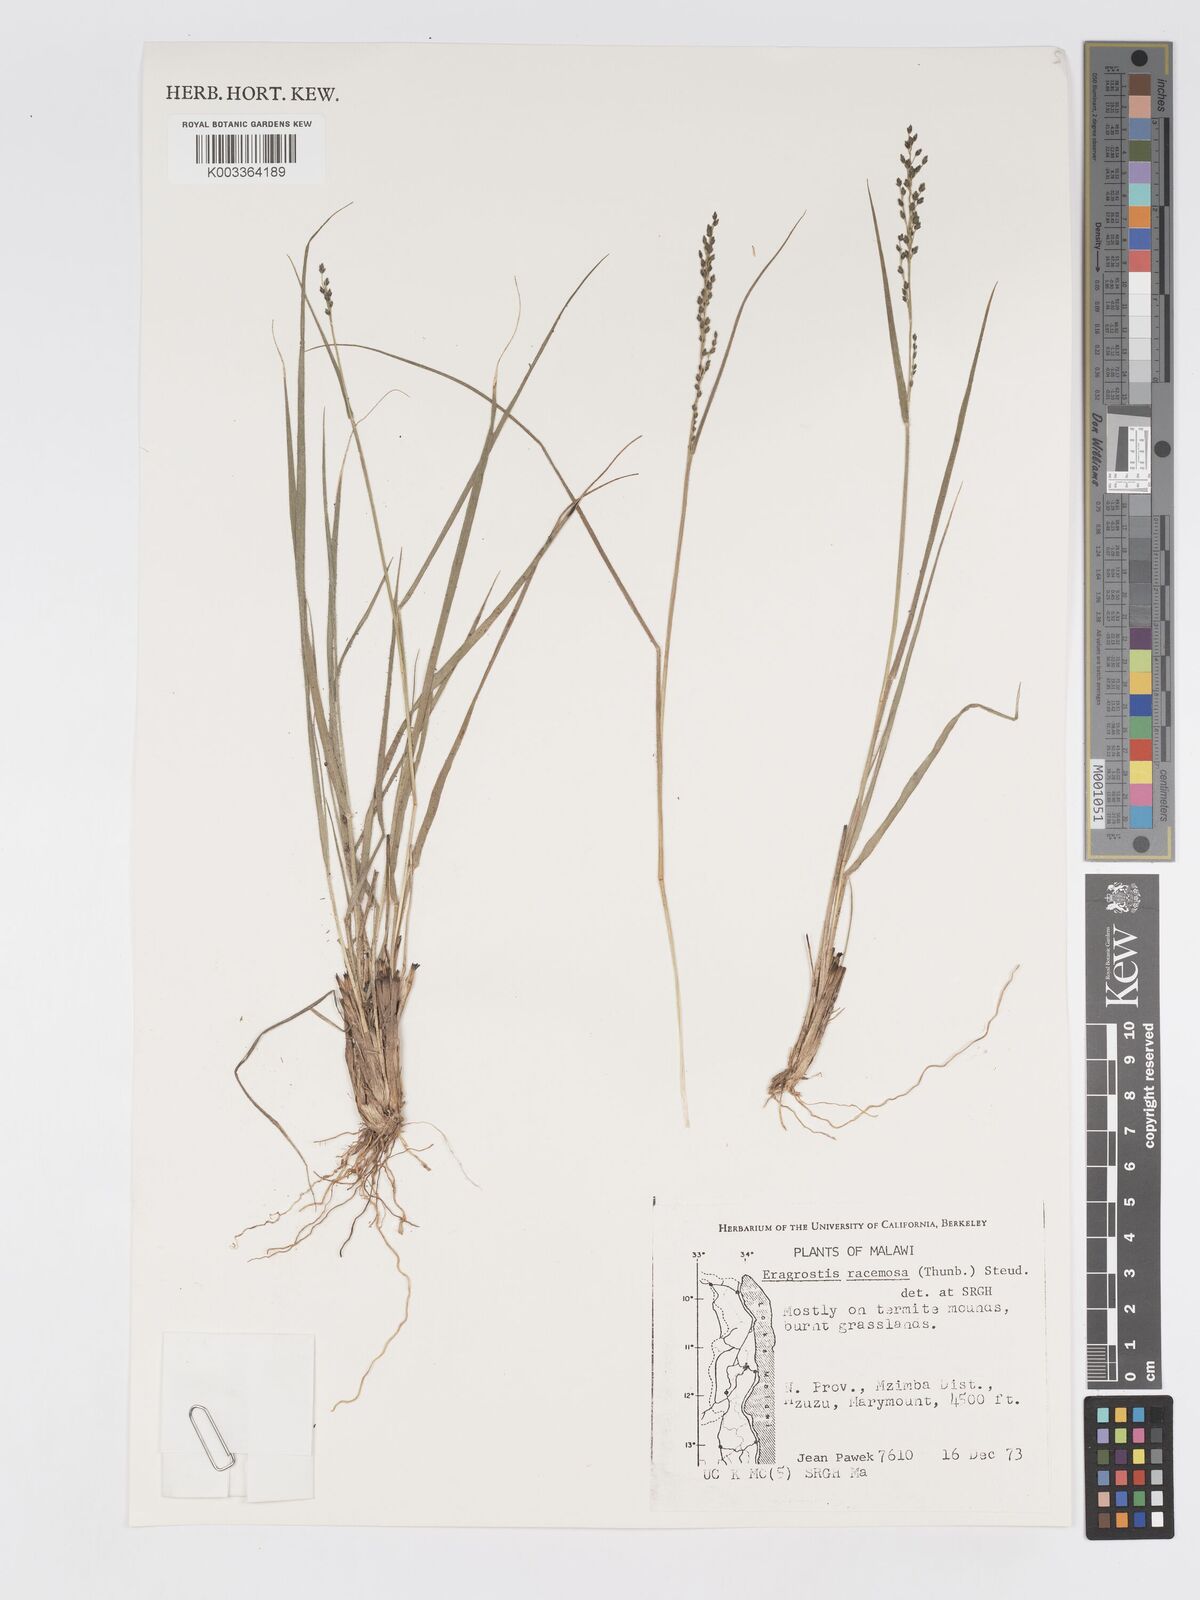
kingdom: Plantae
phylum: Tracheophyta
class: Liliopsida
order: Poales
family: Poaceae
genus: Eragrostis
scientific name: Eragrostis racemosa
